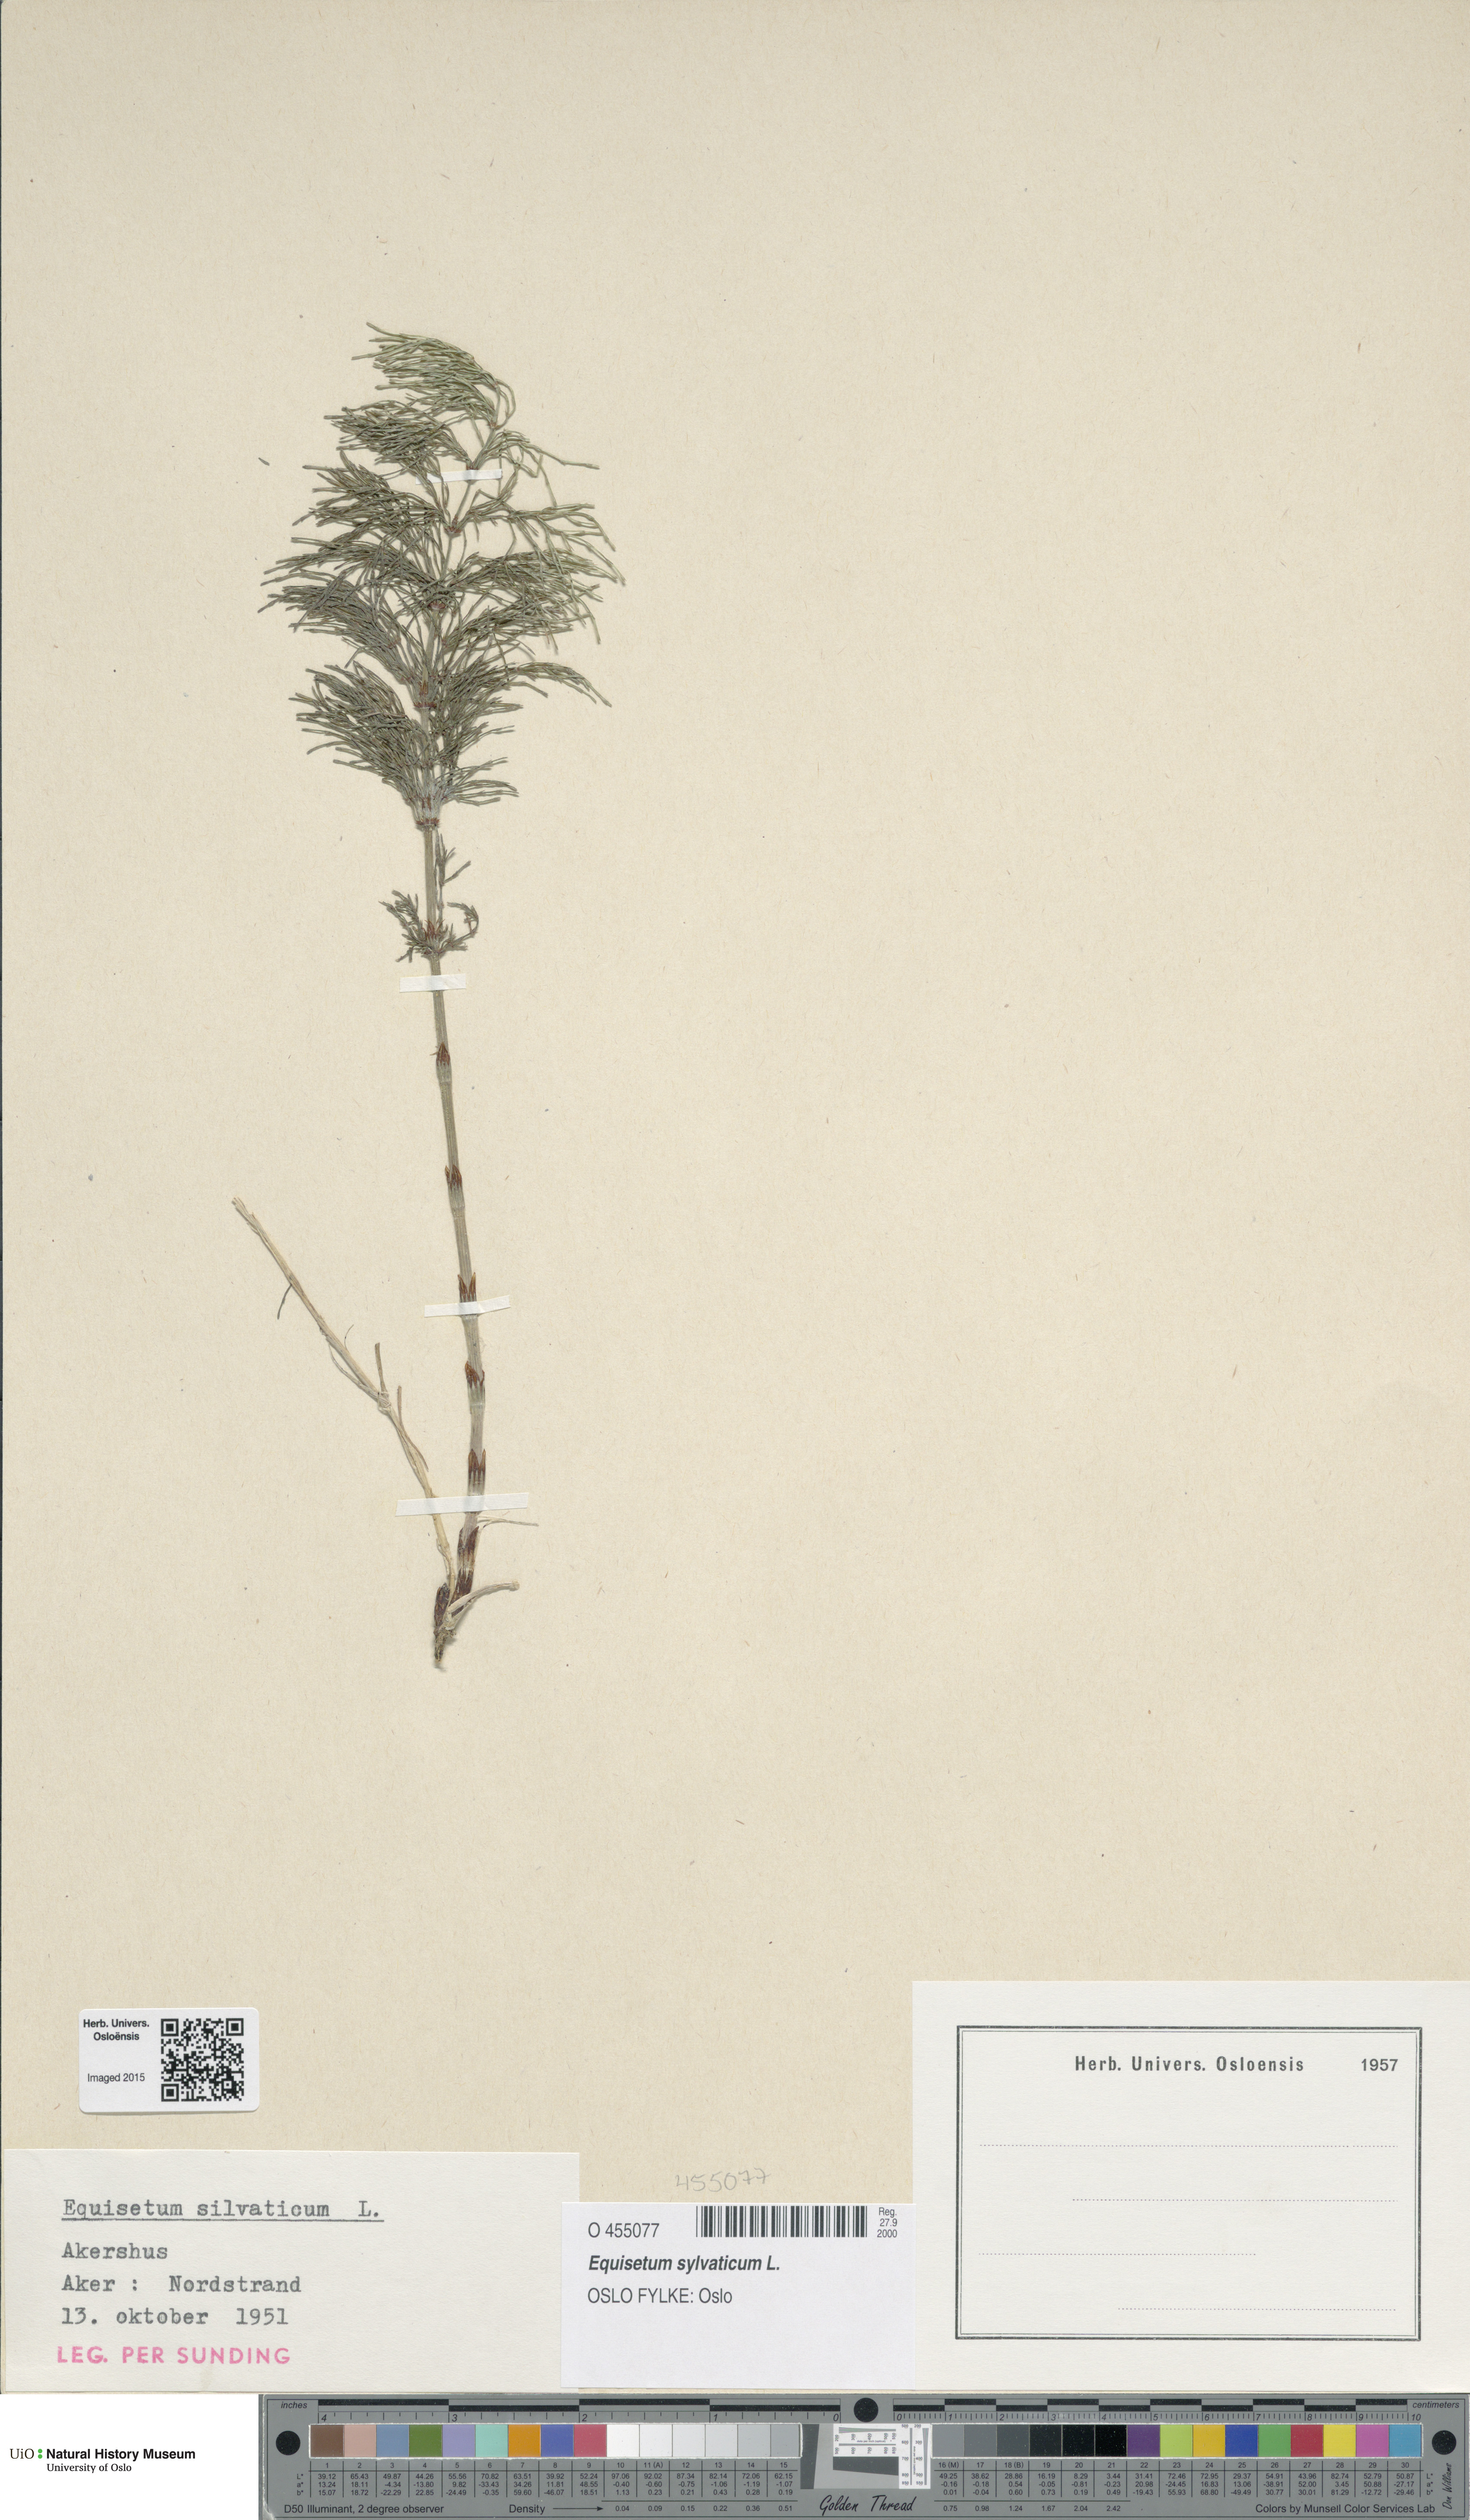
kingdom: Plantae
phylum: Tracheophyta
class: Polypodiopsida
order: Equisetales
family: Equisetaceae
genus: Equisetum
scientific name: Equisetum sylvaticum
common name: Wood horsetail
